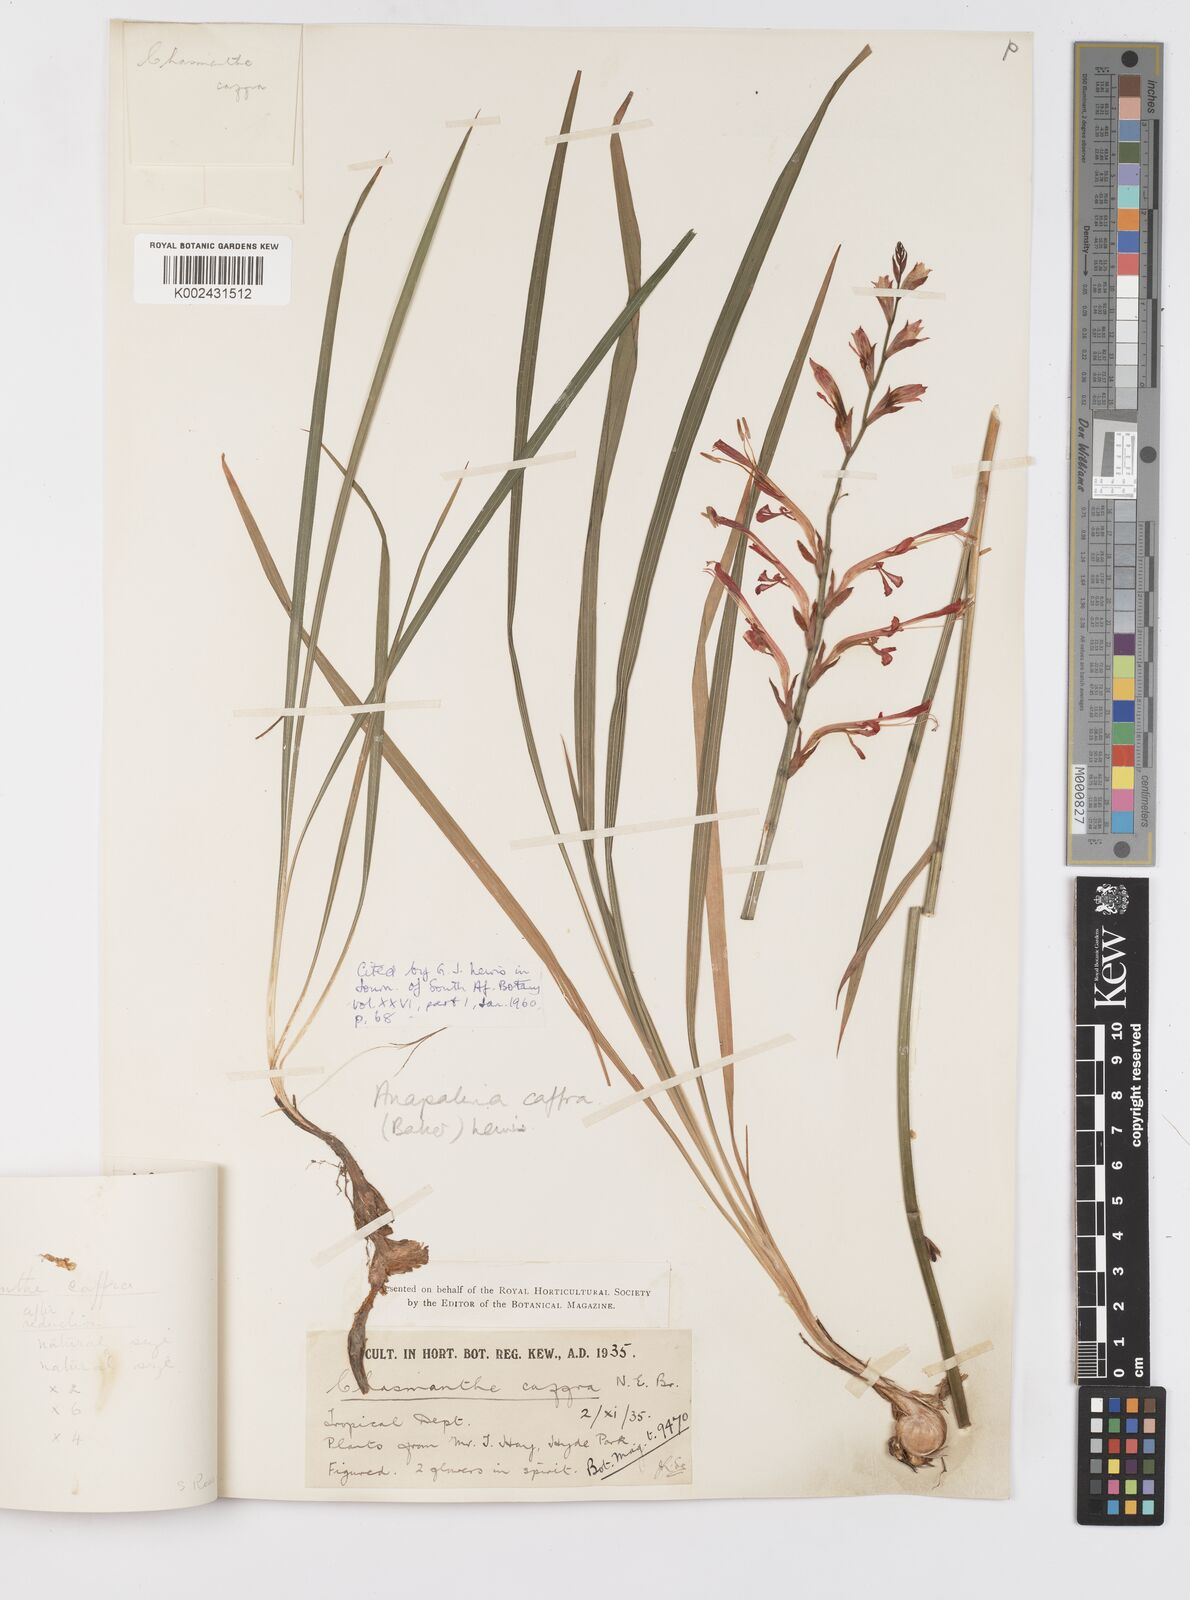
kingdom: Plantae
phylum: Tracheophyta
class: Liliopsida
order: Asparagales
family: Iridaceae
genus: Tritoniopsis
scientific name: Tritoniopsis caffra
